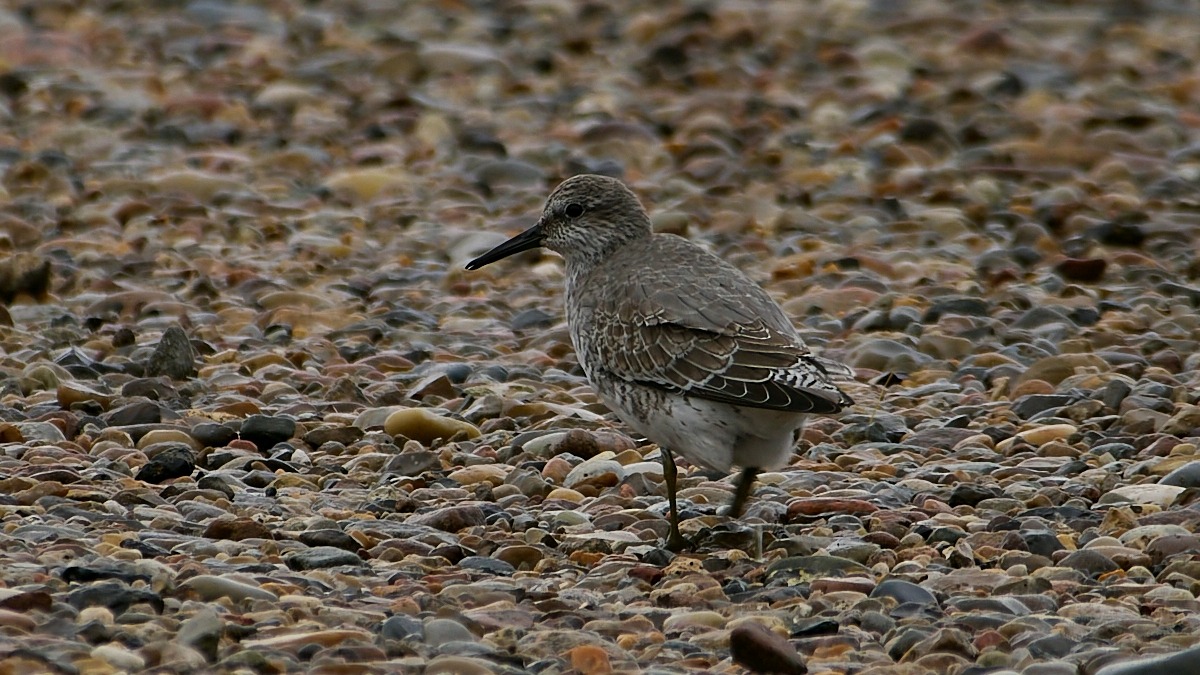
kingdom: Animalia
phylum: Chordata
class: Aves
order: Charadriiformes
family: Scolopacidae
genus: Calidris
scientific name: Calidris canutus
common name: Islandsk ryle
